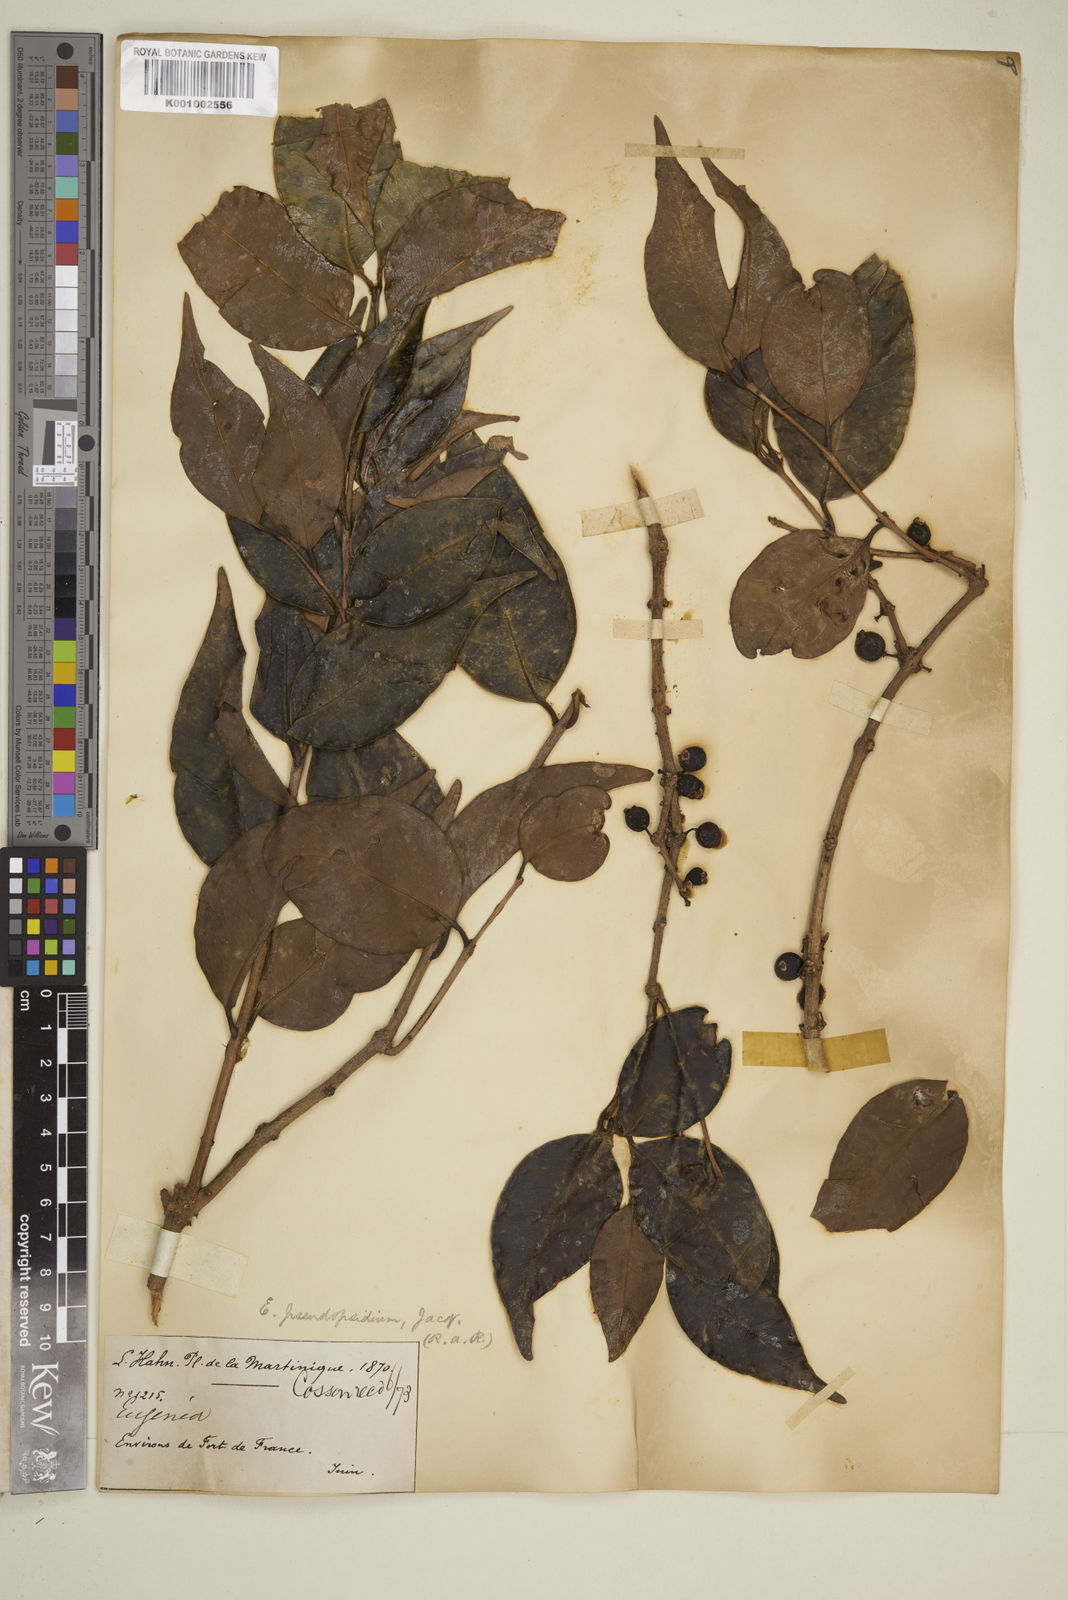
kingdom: Plantae
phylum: Tracheophyta
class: Magnoliopsida
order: Myrtales
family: Myrtaceae
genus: Eugenia
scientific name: Eugenia lambertiana
